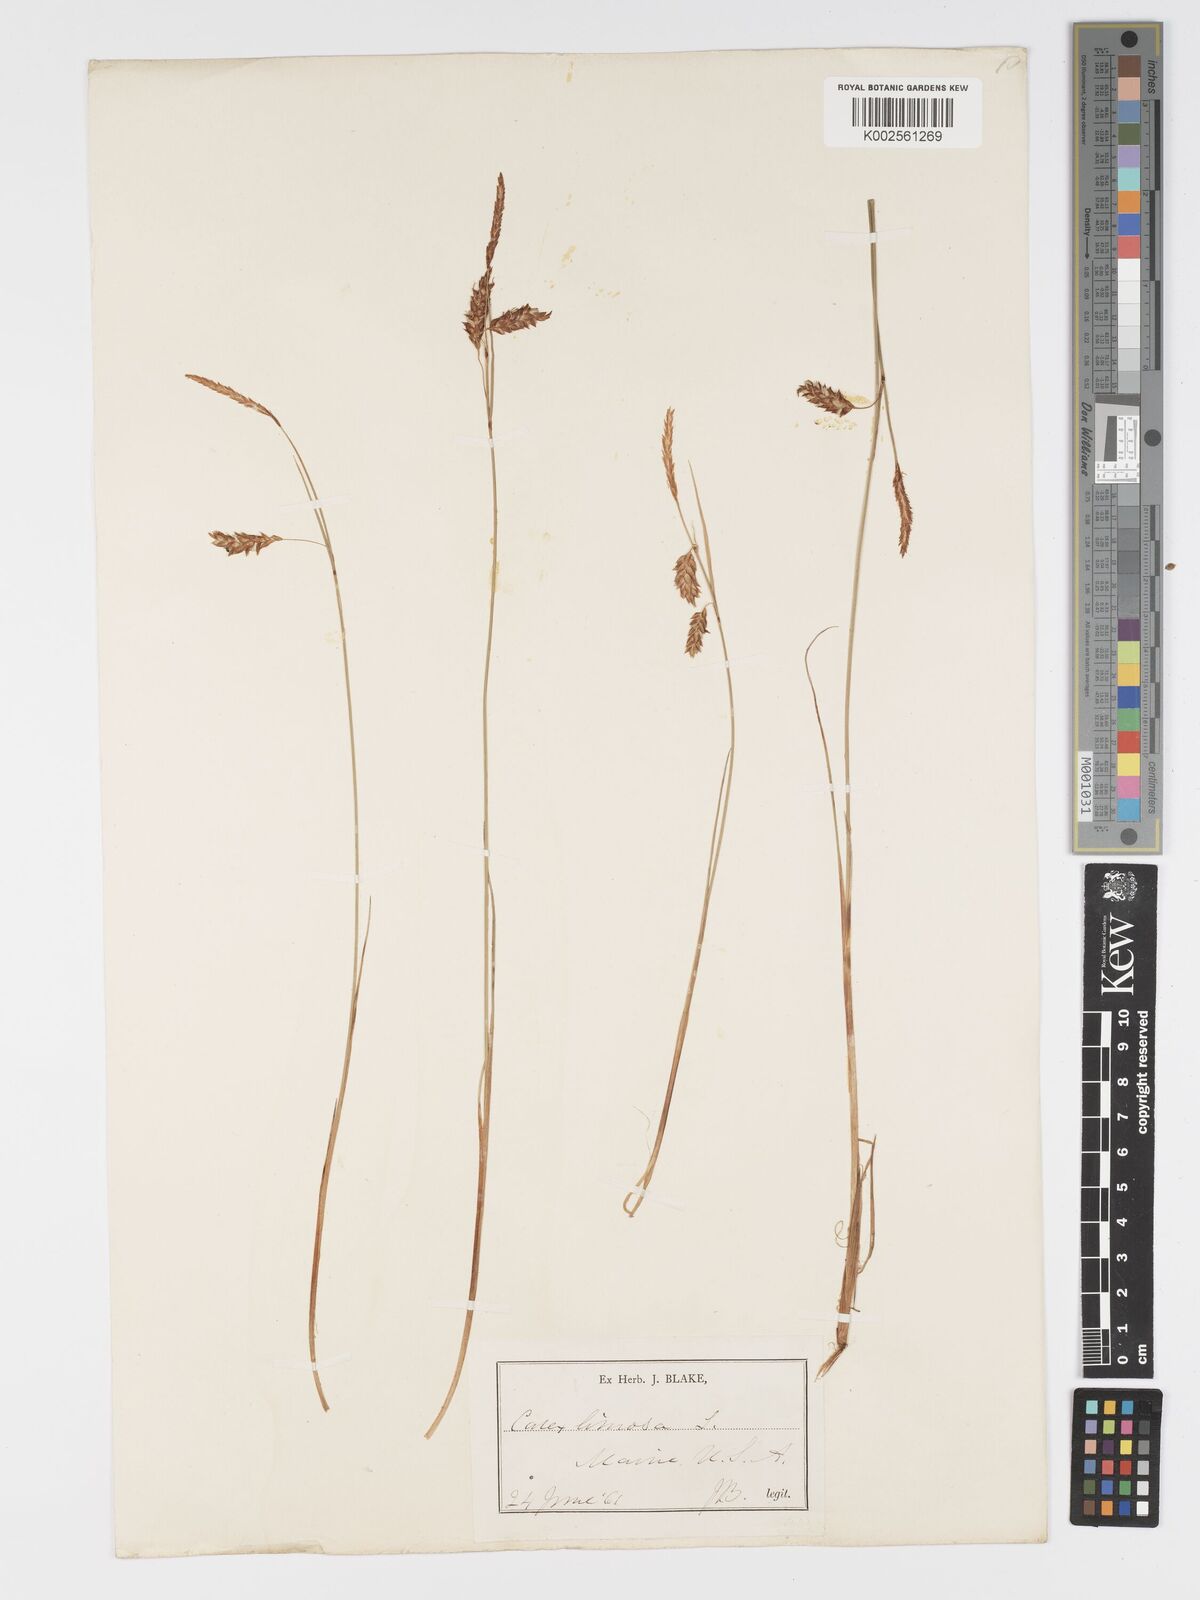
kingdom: Plantae
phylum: Tracheophyta
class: Liliopsida
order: Poales
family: Cyperaceae
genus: Carex
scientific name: Carex limosa
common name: Bog sedge
